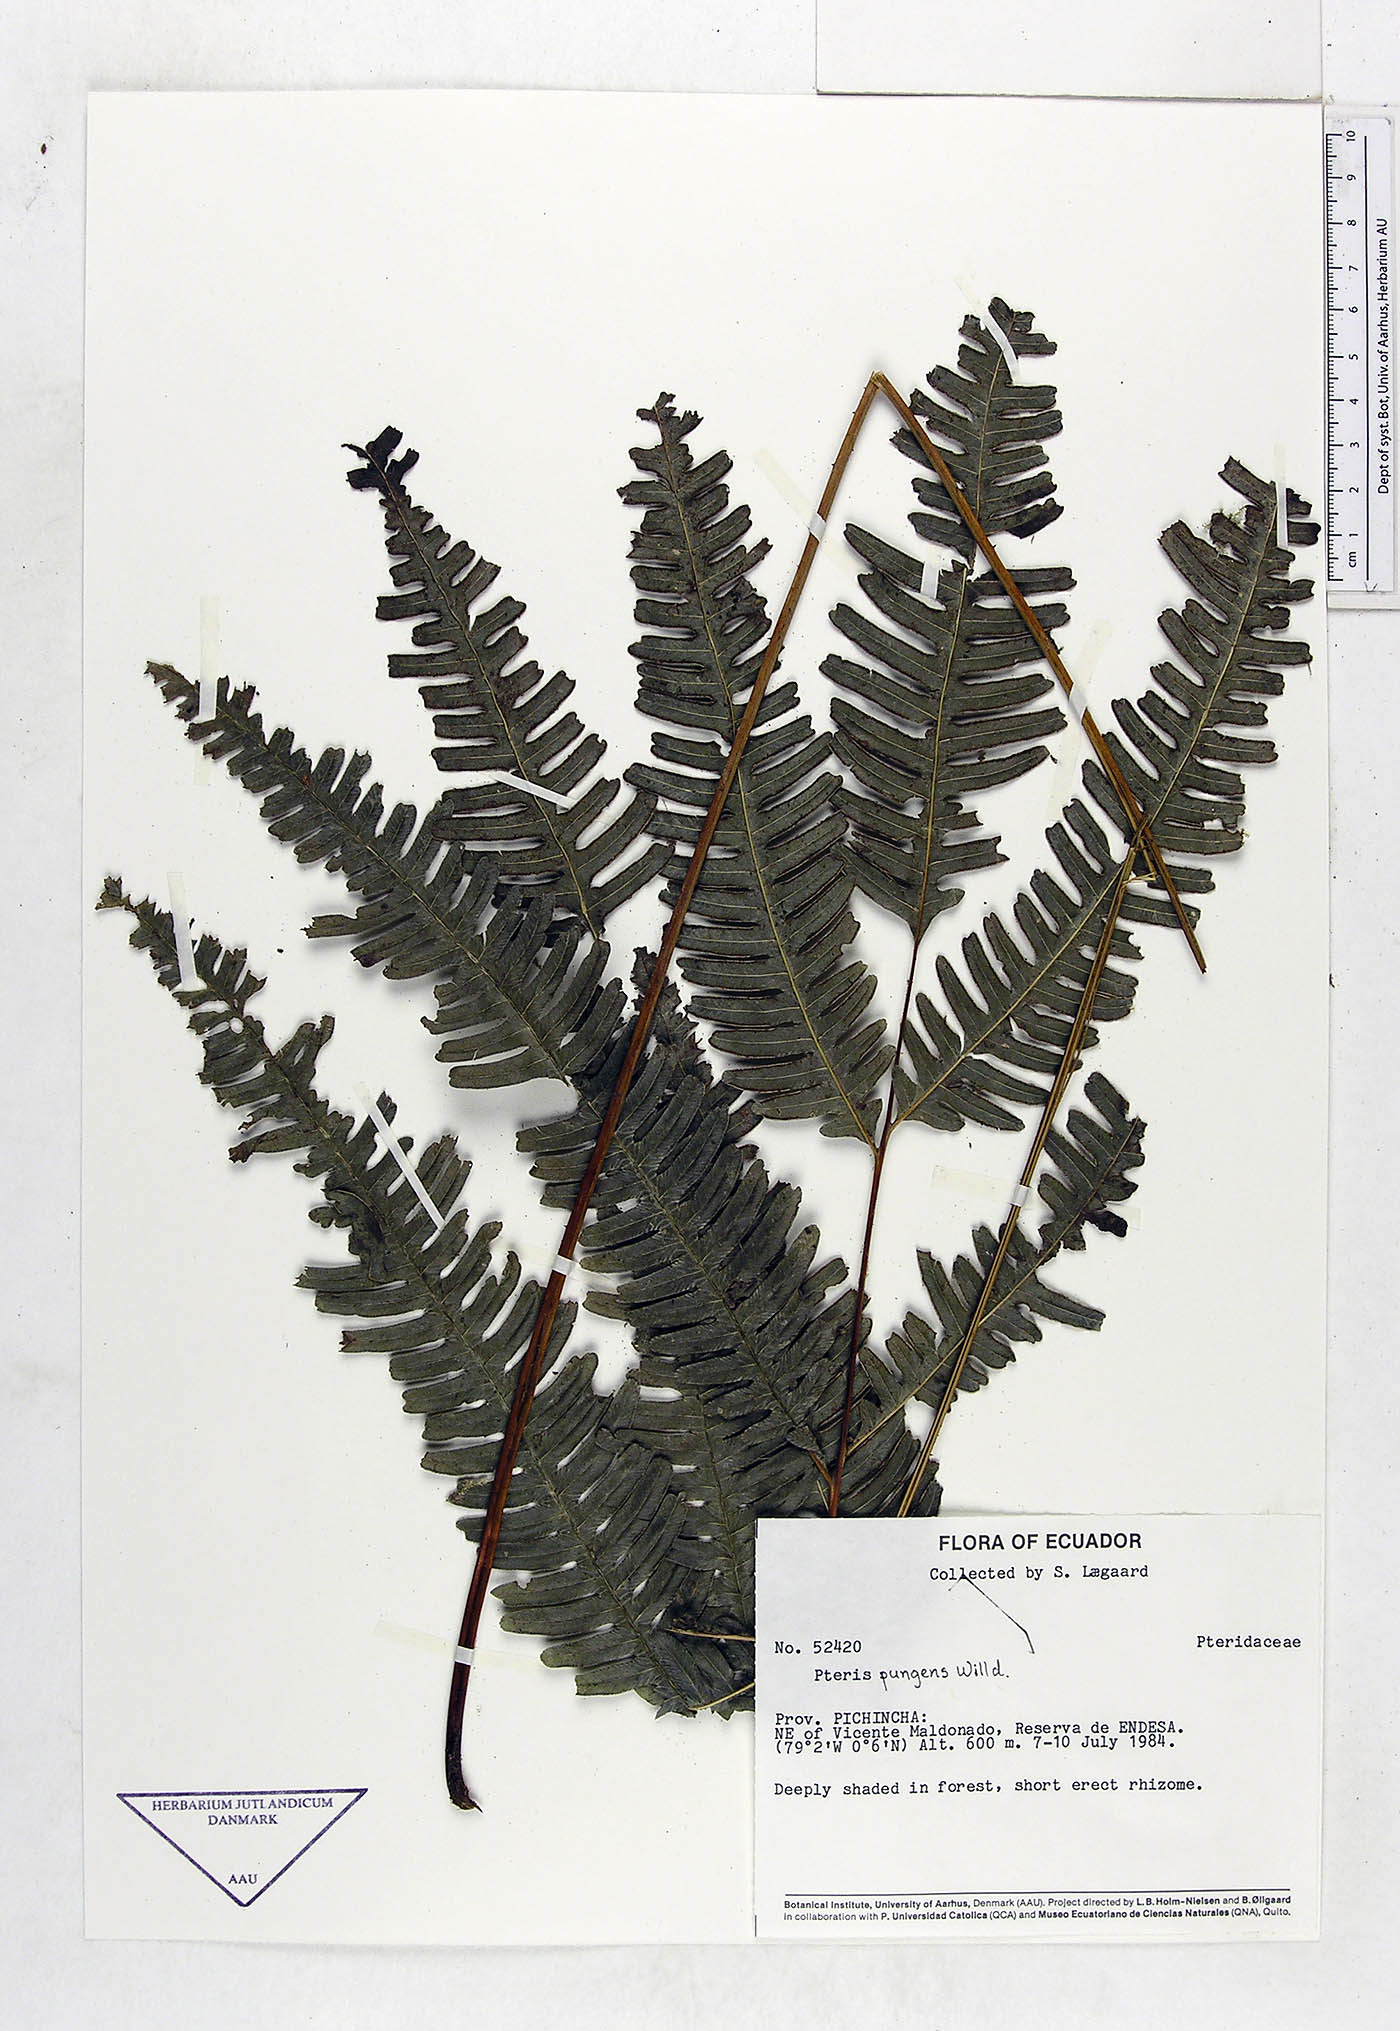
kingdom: Plantae
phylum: Tracheophyta
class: Polypodiopsida
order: Polypodiales
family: Pteridaceae
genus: Pteris
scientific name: Pteris pungens
